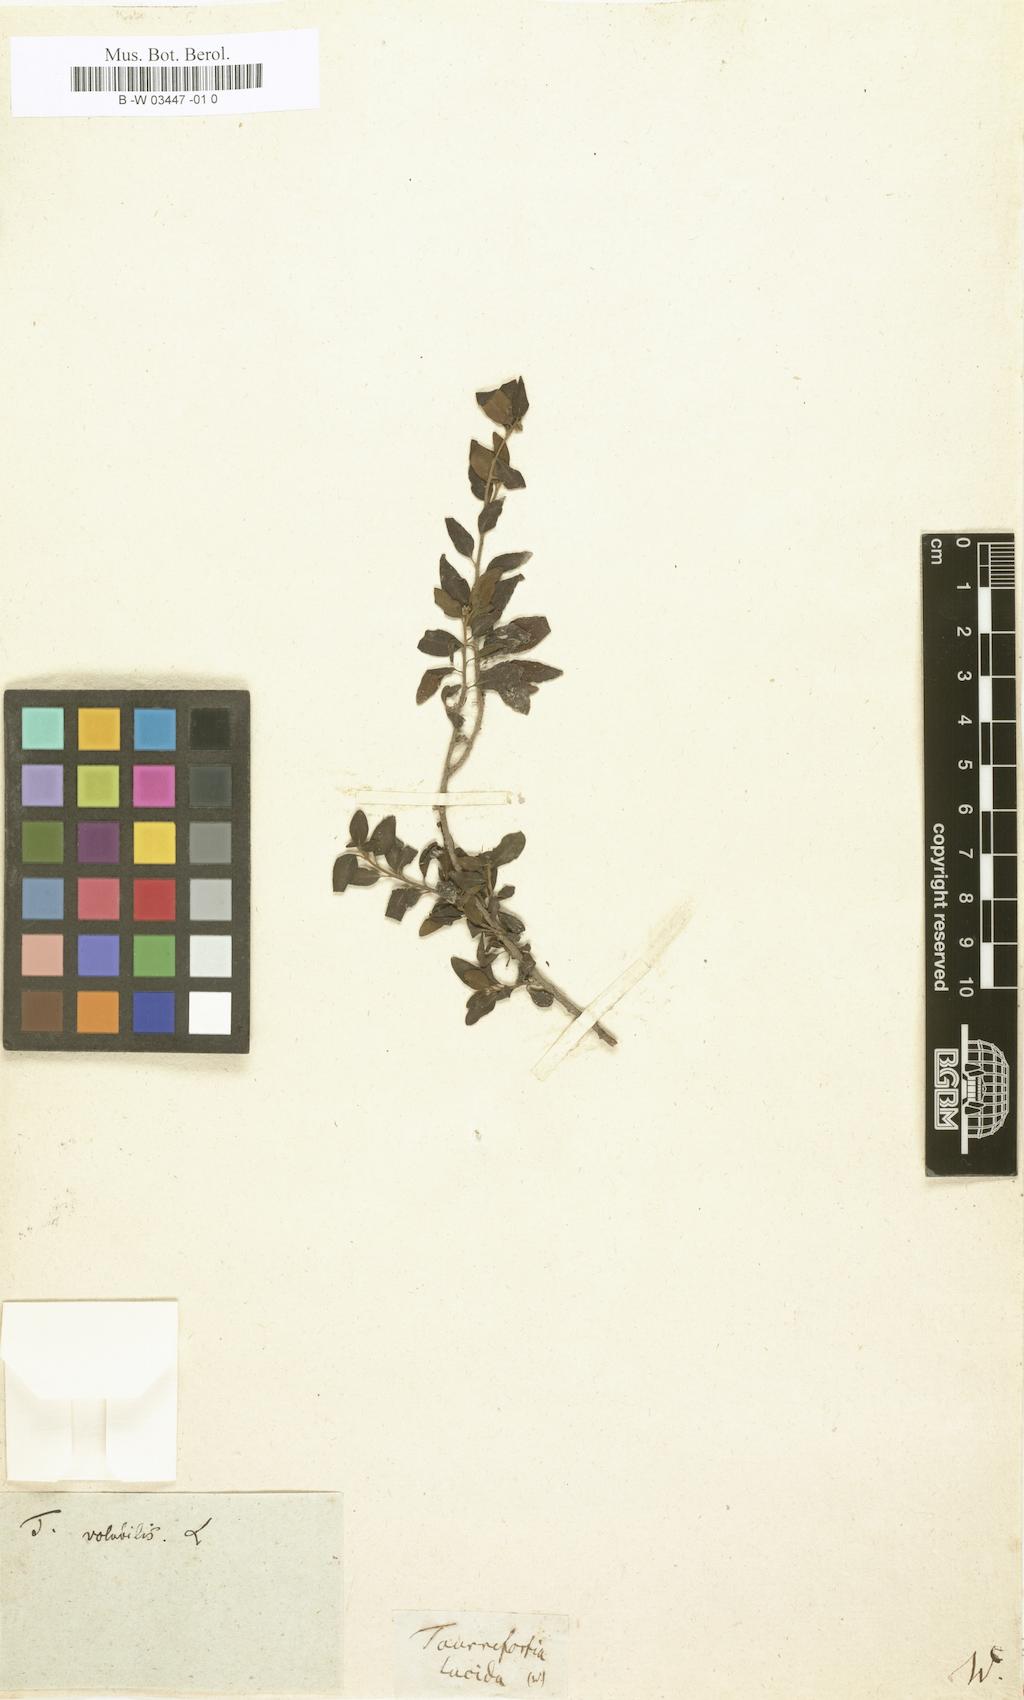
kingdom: Plantae
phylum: Tracheophyta
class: Magnoliopsida
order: Boraginales
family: Heliotropiaceae
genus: Myriopus
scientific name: Myriopus maculatus
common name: Laurel-leaf soldierbush
